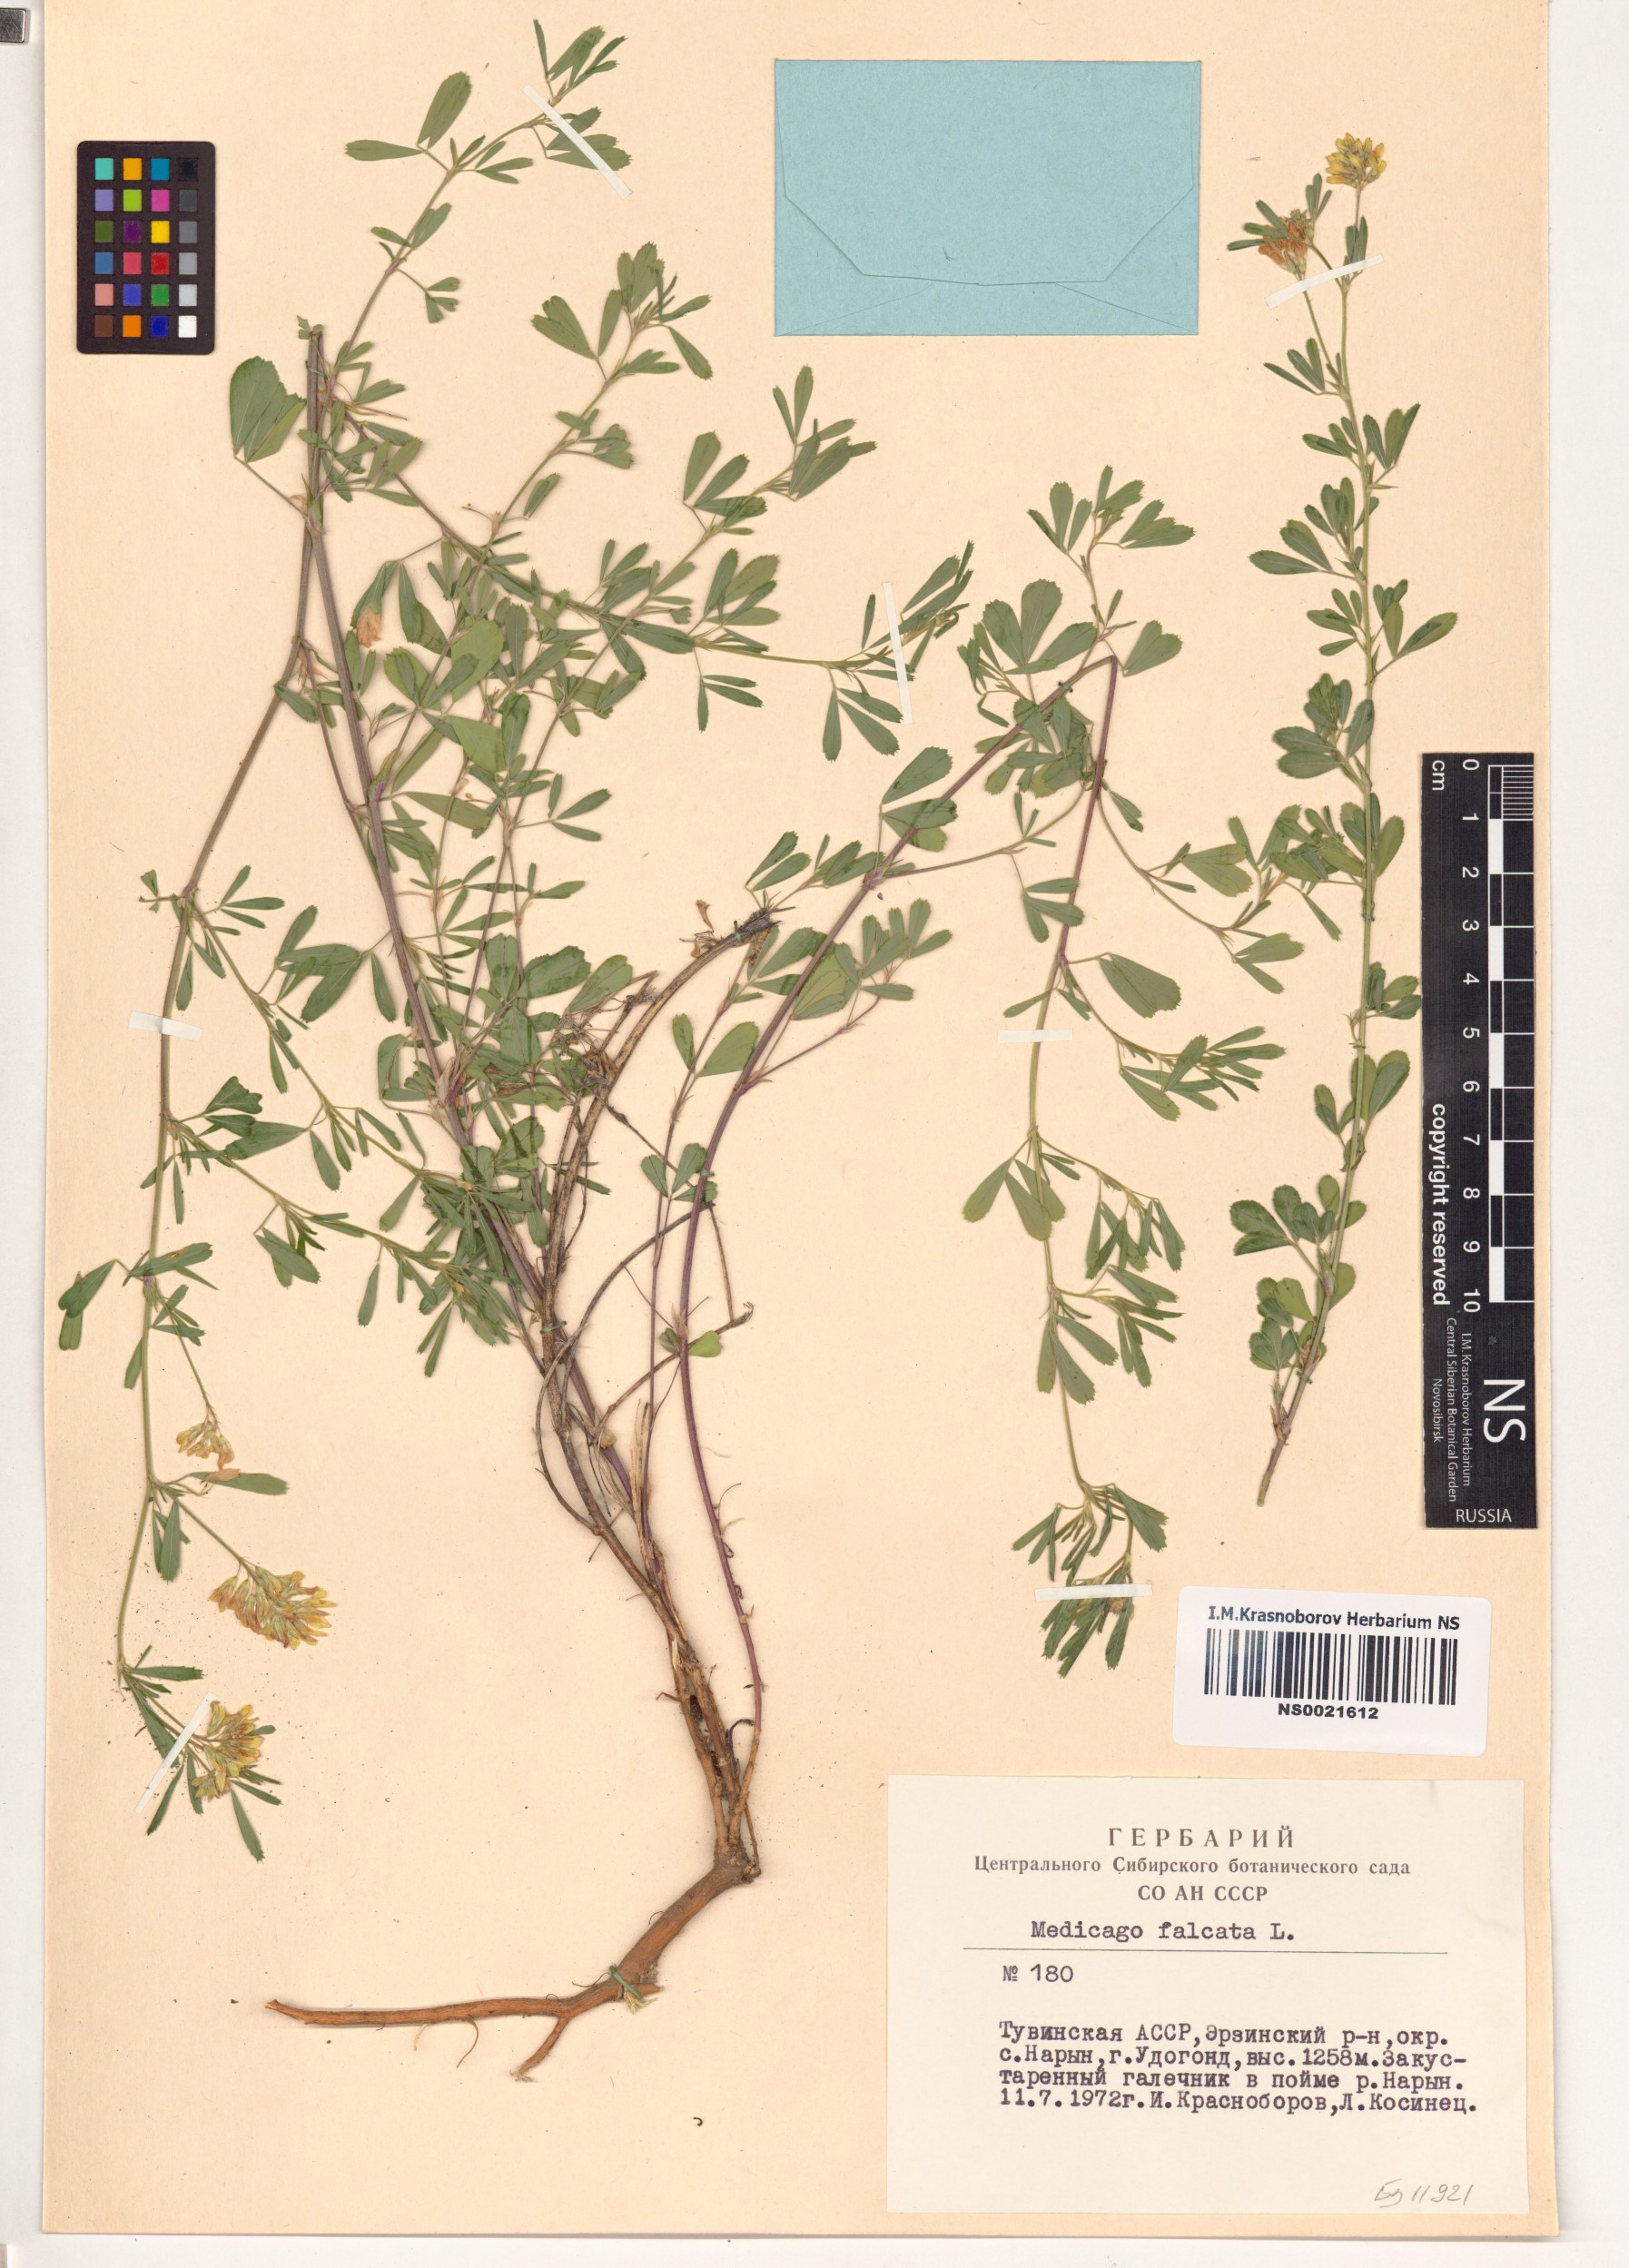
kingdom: Plantae
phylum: Tracheophyta
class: Magnoliopsida
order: Fabales
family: Fabaceae
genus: Medicago
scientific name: Medicago falcata
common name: Sickle medick
